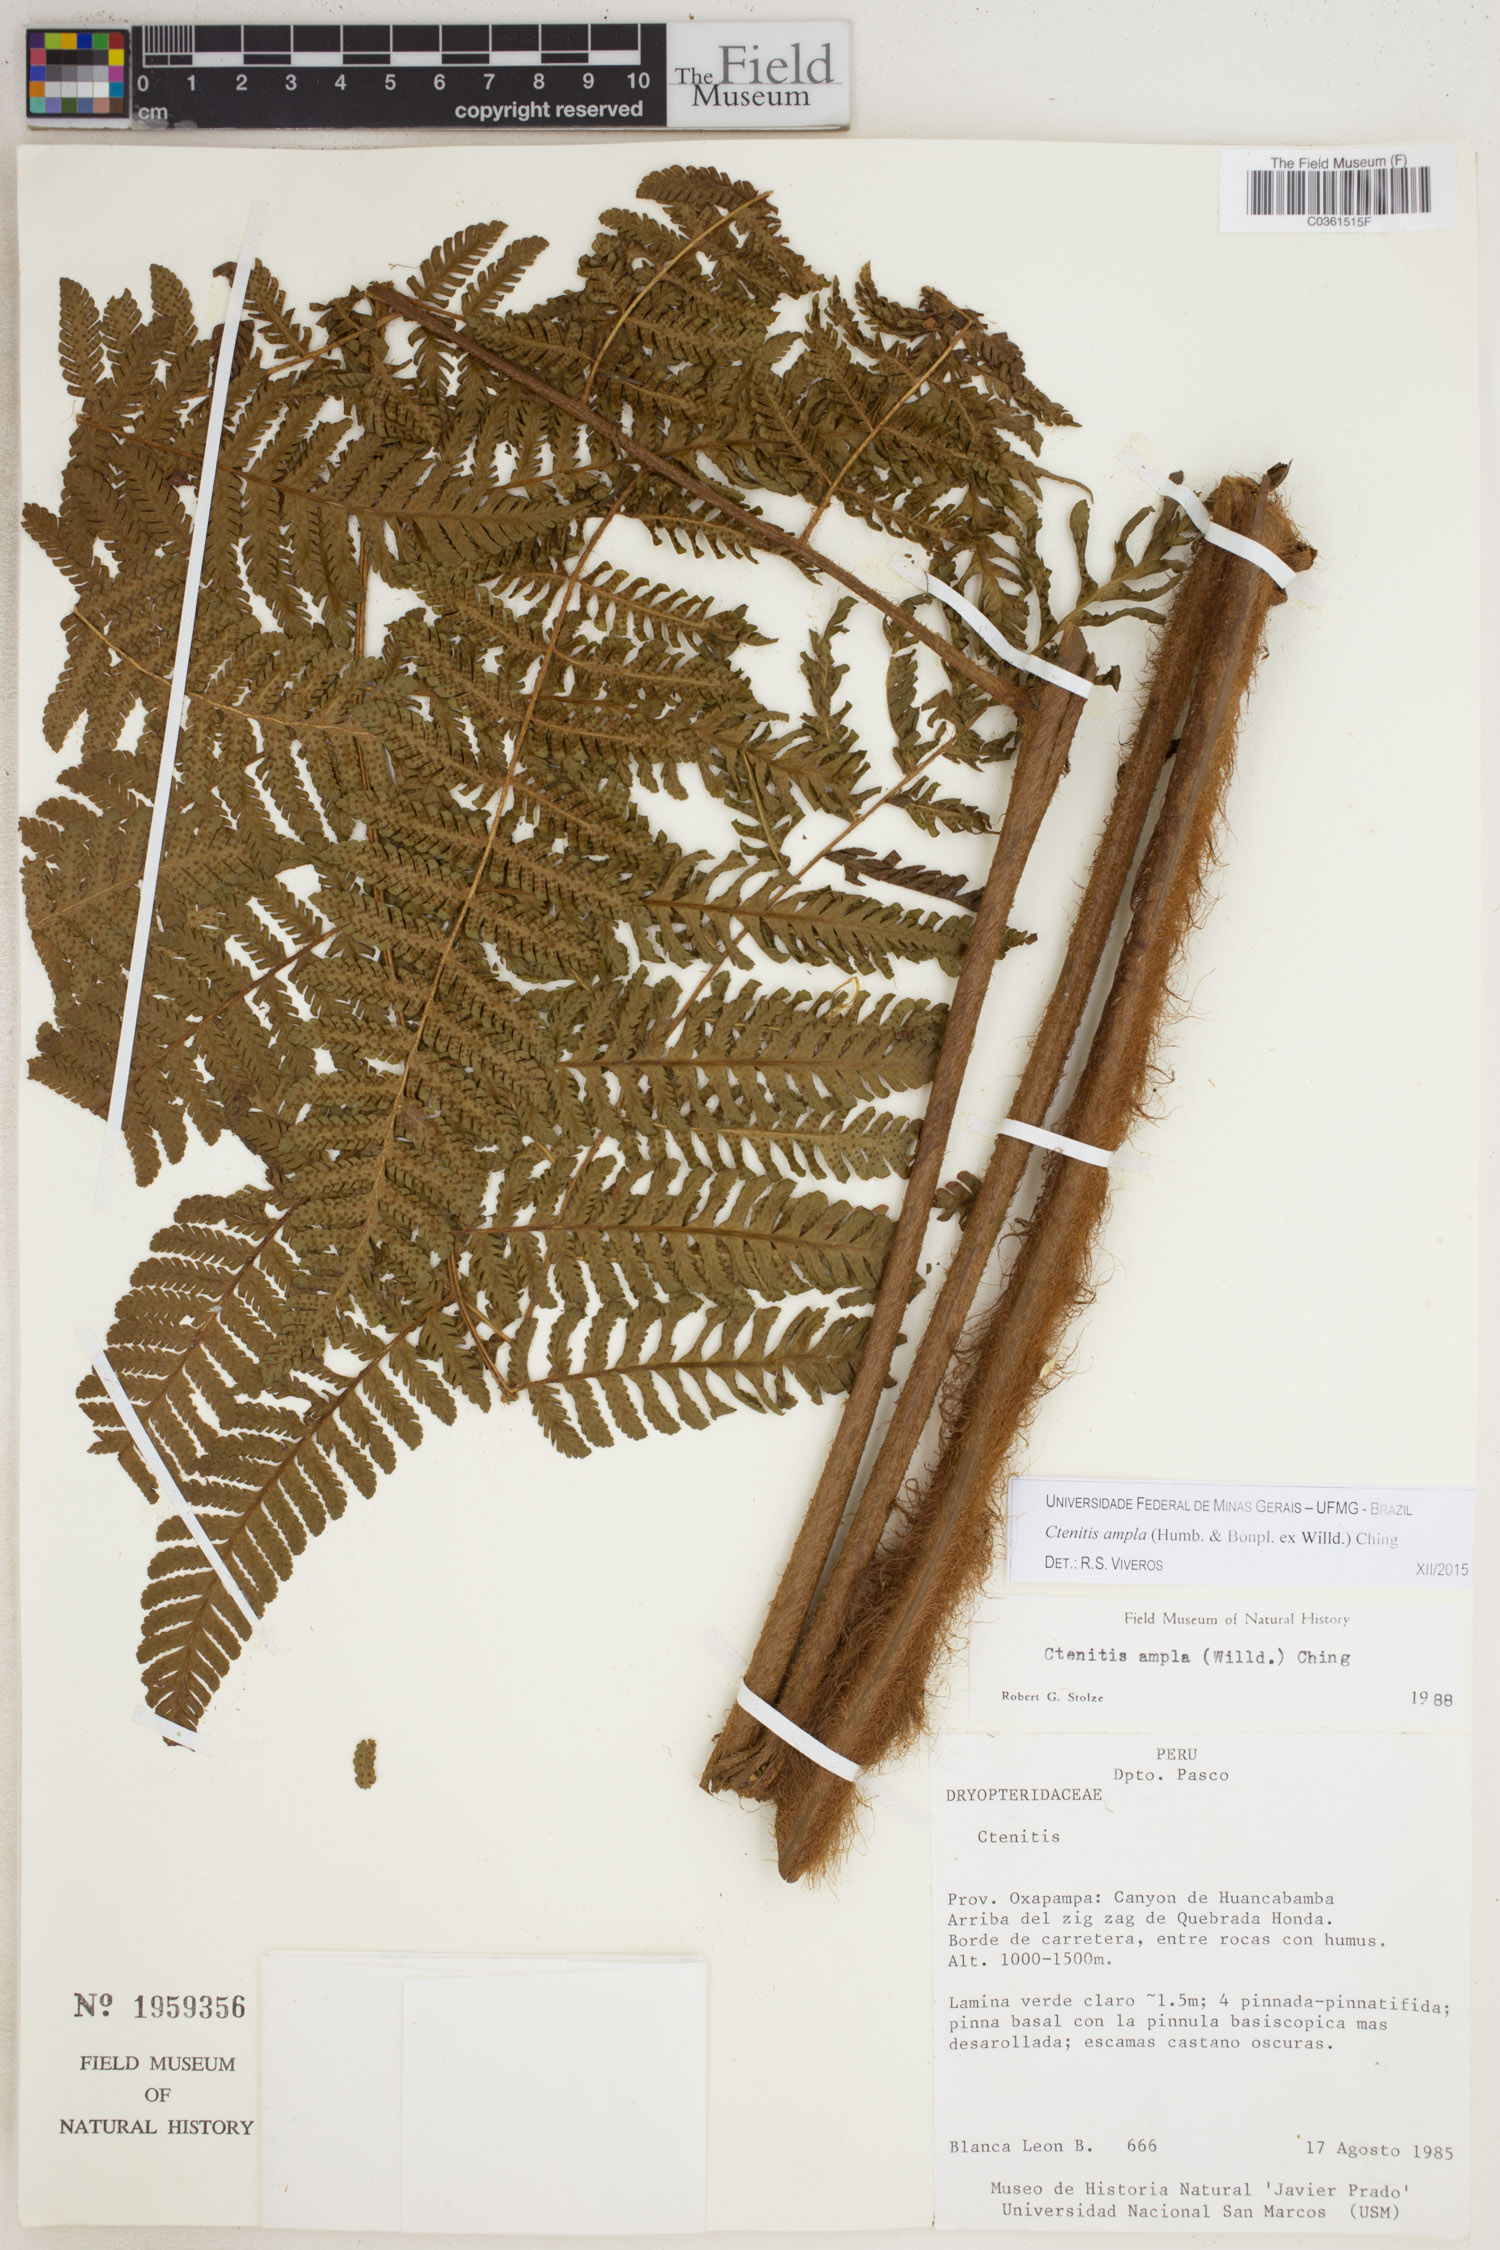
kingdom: Plantae
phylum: Tracheophyta
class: Polypodiopsida
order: Polypodiales
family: Dryopteridaceae
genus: Ctenitis
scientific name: Ctenitis sloanei
